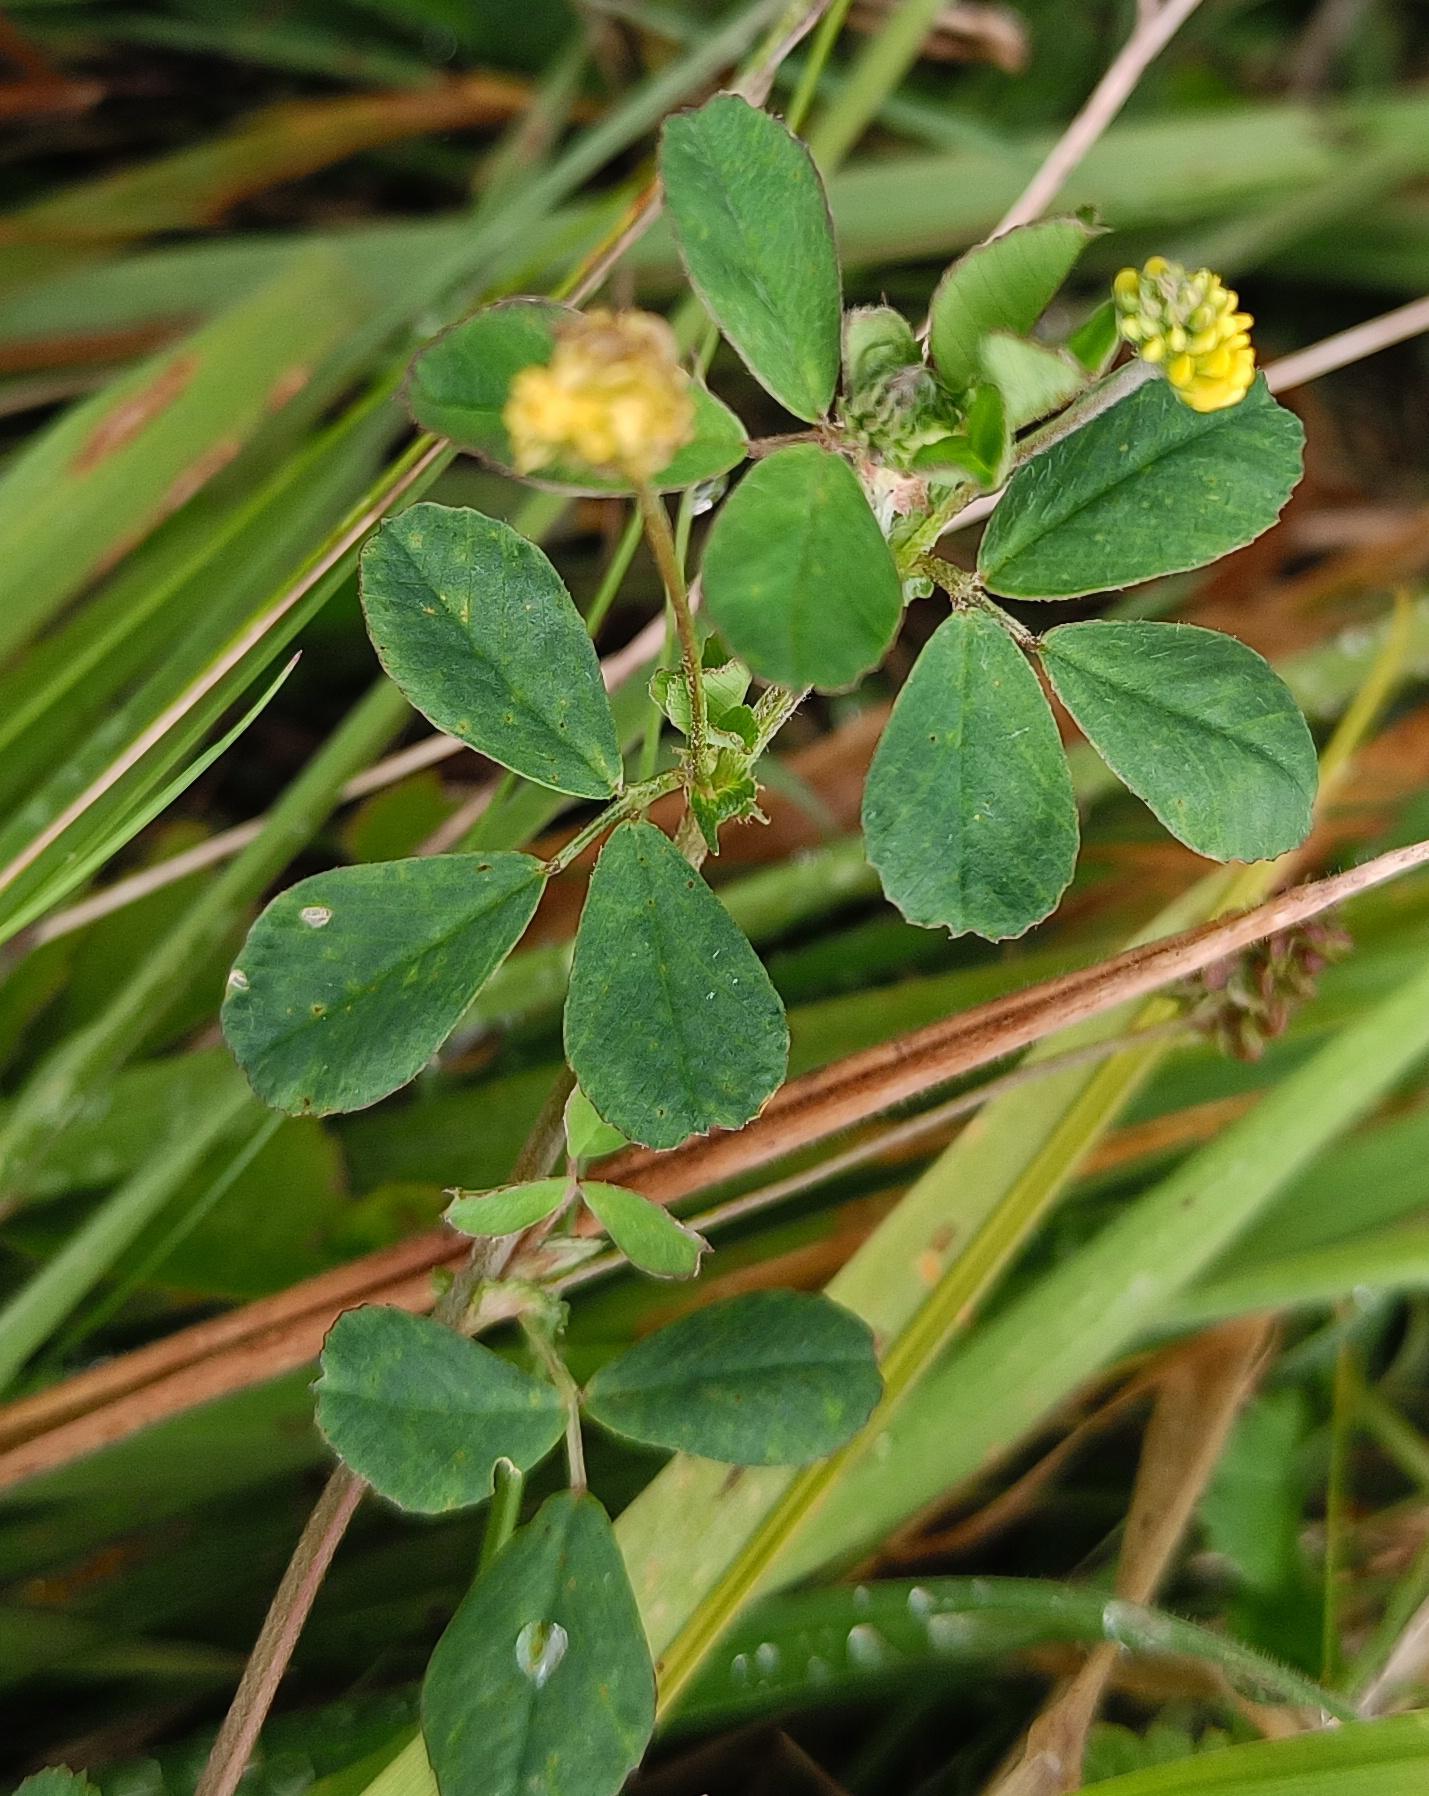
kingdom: Plantae
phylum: Tracheophyta
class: Magnoliopsida
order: Fabales
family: Fabaceae
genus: Medicago
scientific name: Medicago lupulina
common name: Humle-sneglebælg
